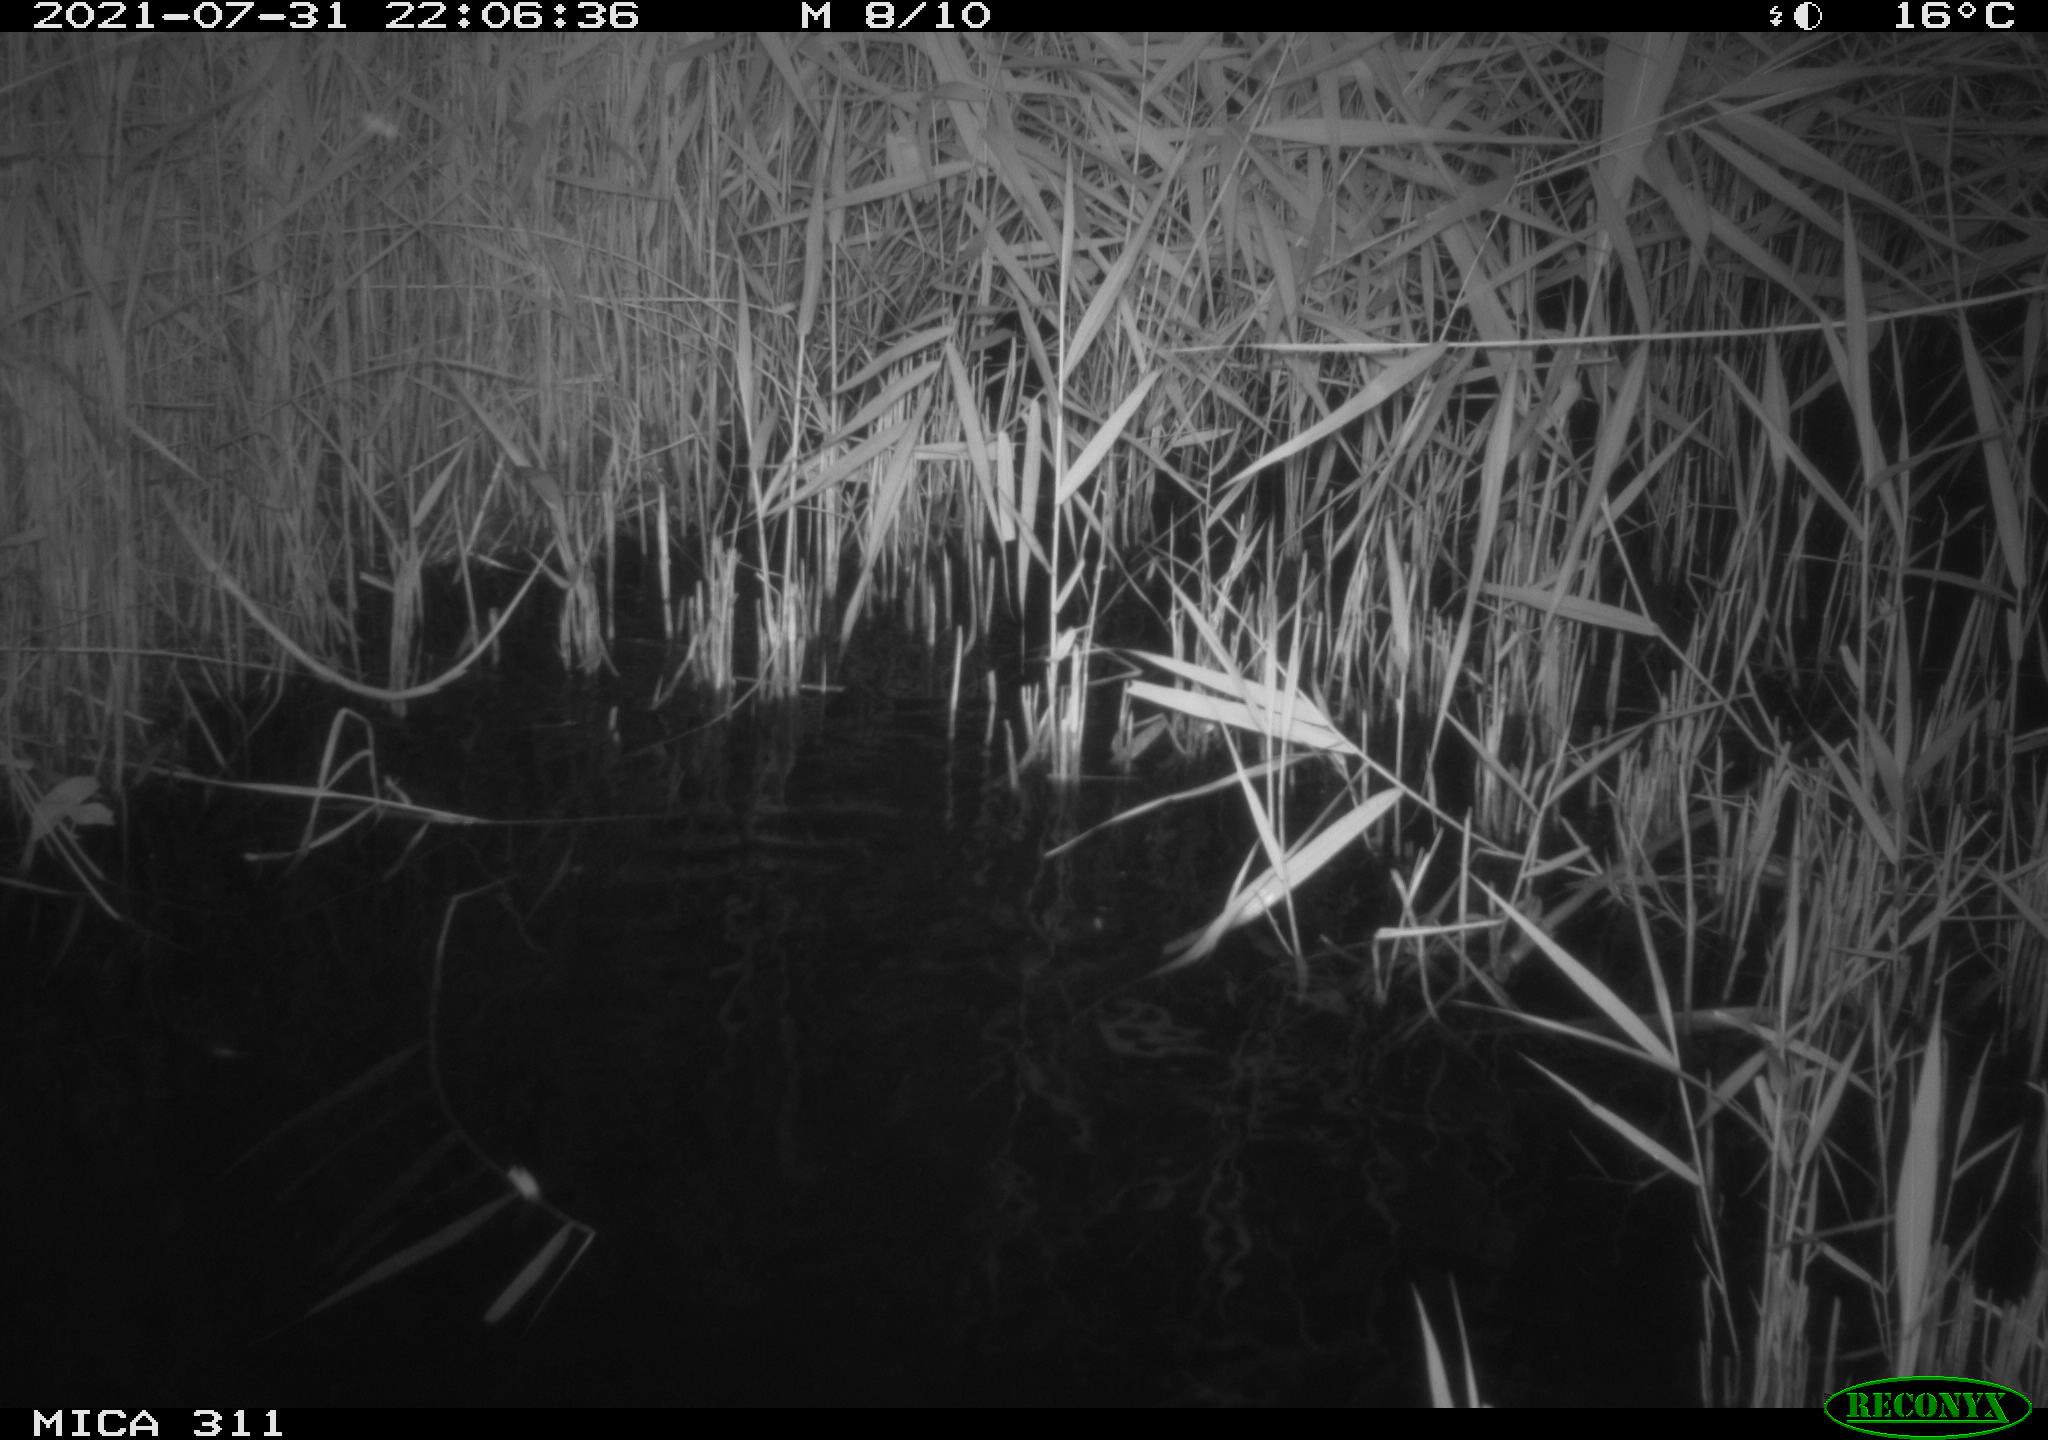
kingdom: Animalia
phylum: Chordata
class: Mammalia
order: Rodentia
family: Muridae
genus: Rattus
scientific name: Rattus norvegicus
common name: Brown rat
